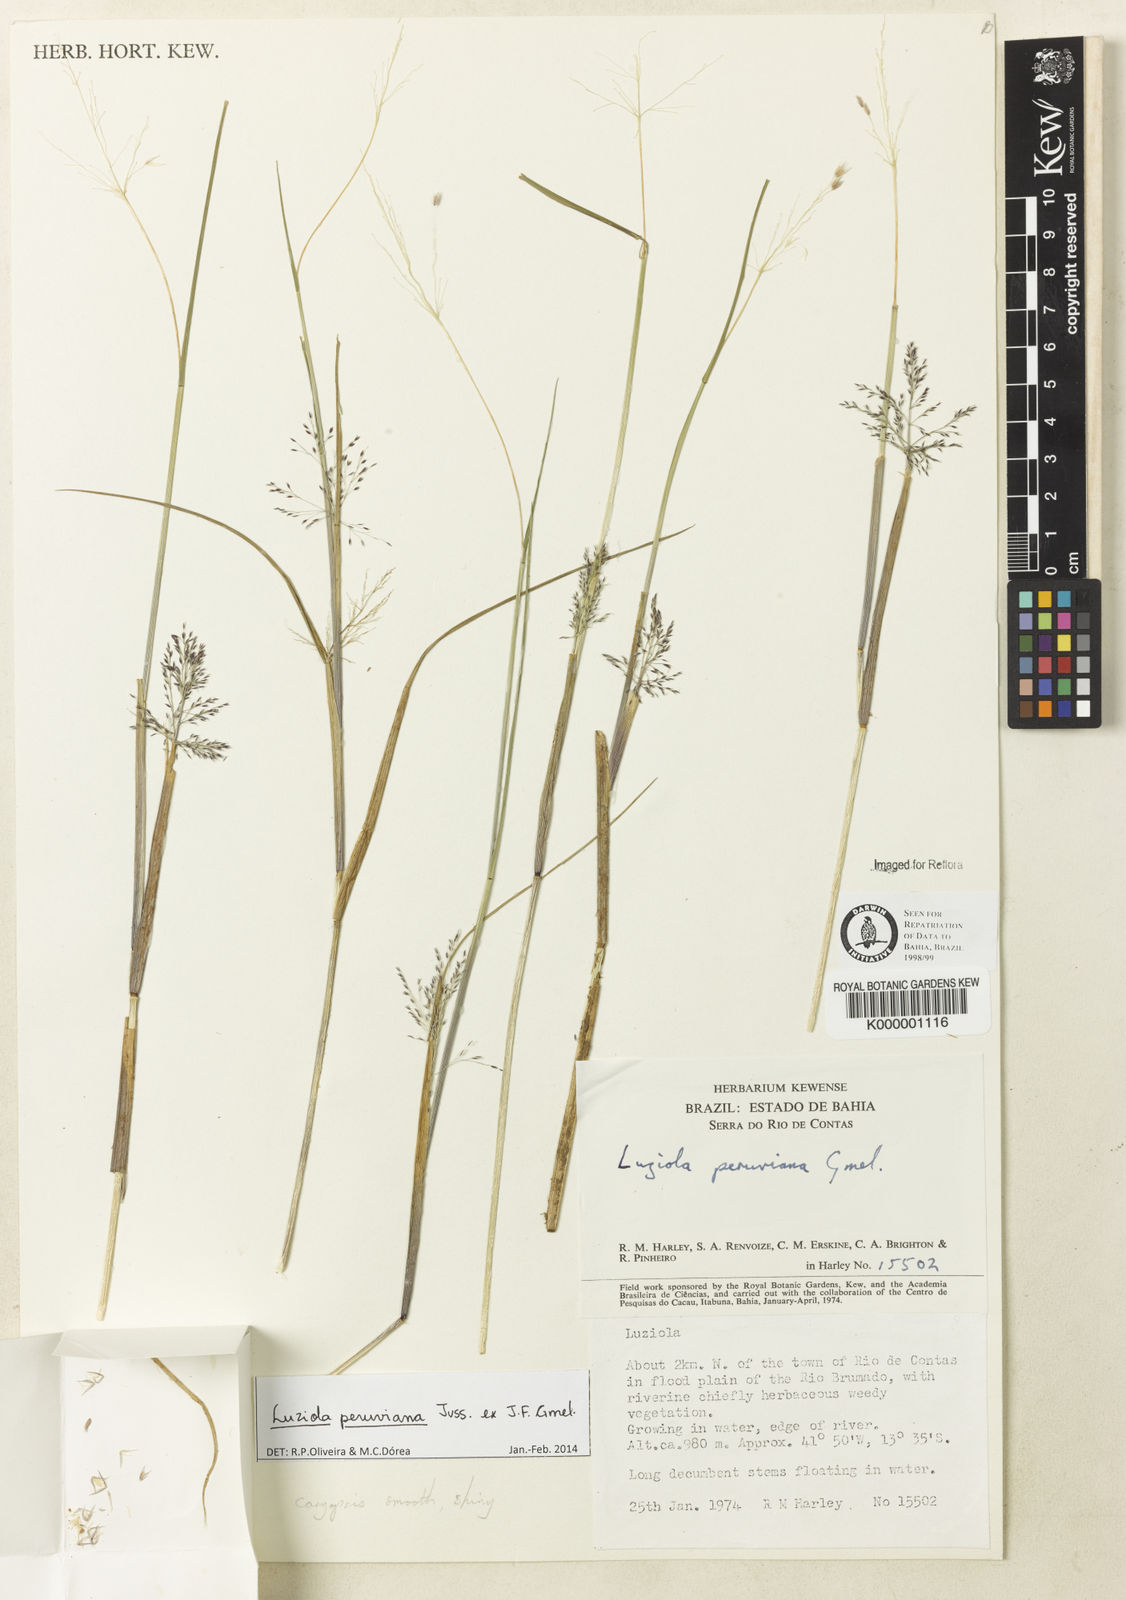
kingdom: Plantae
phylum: Tracheophyta
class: Liliopsida
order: Poales
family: Poaceae
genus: Luziola
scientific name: Luziola peruviana
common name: Peruvian watergrass
